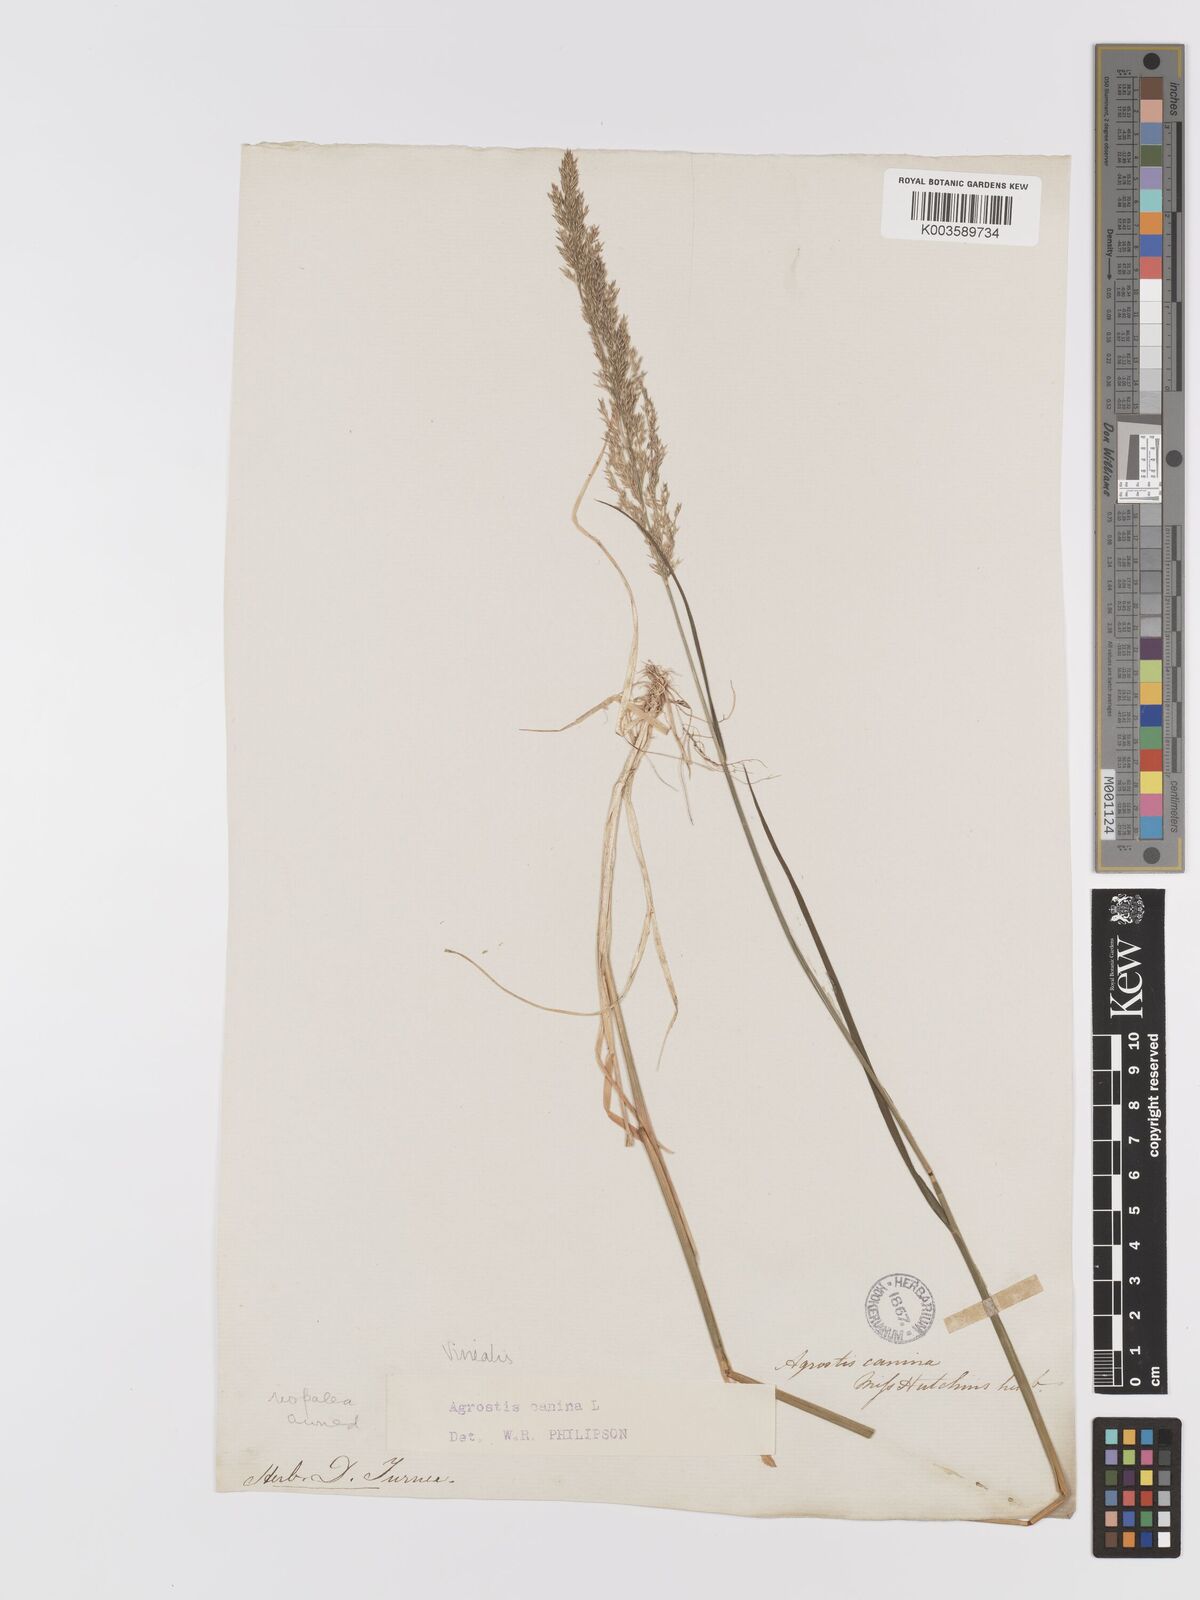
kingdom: Plantae
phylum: Tracheophyta
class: Liliopsida
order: Poales
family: Poaceae
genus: Agrostis
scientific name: Agrostis
